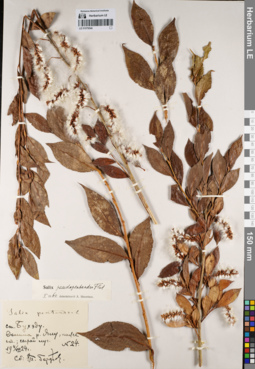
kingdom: Plantae
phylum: Tracheophyta
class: Magnoliopsida
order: Malpighiales
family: Salicaceae
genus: Salix
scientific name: Salix pseudopentandra
